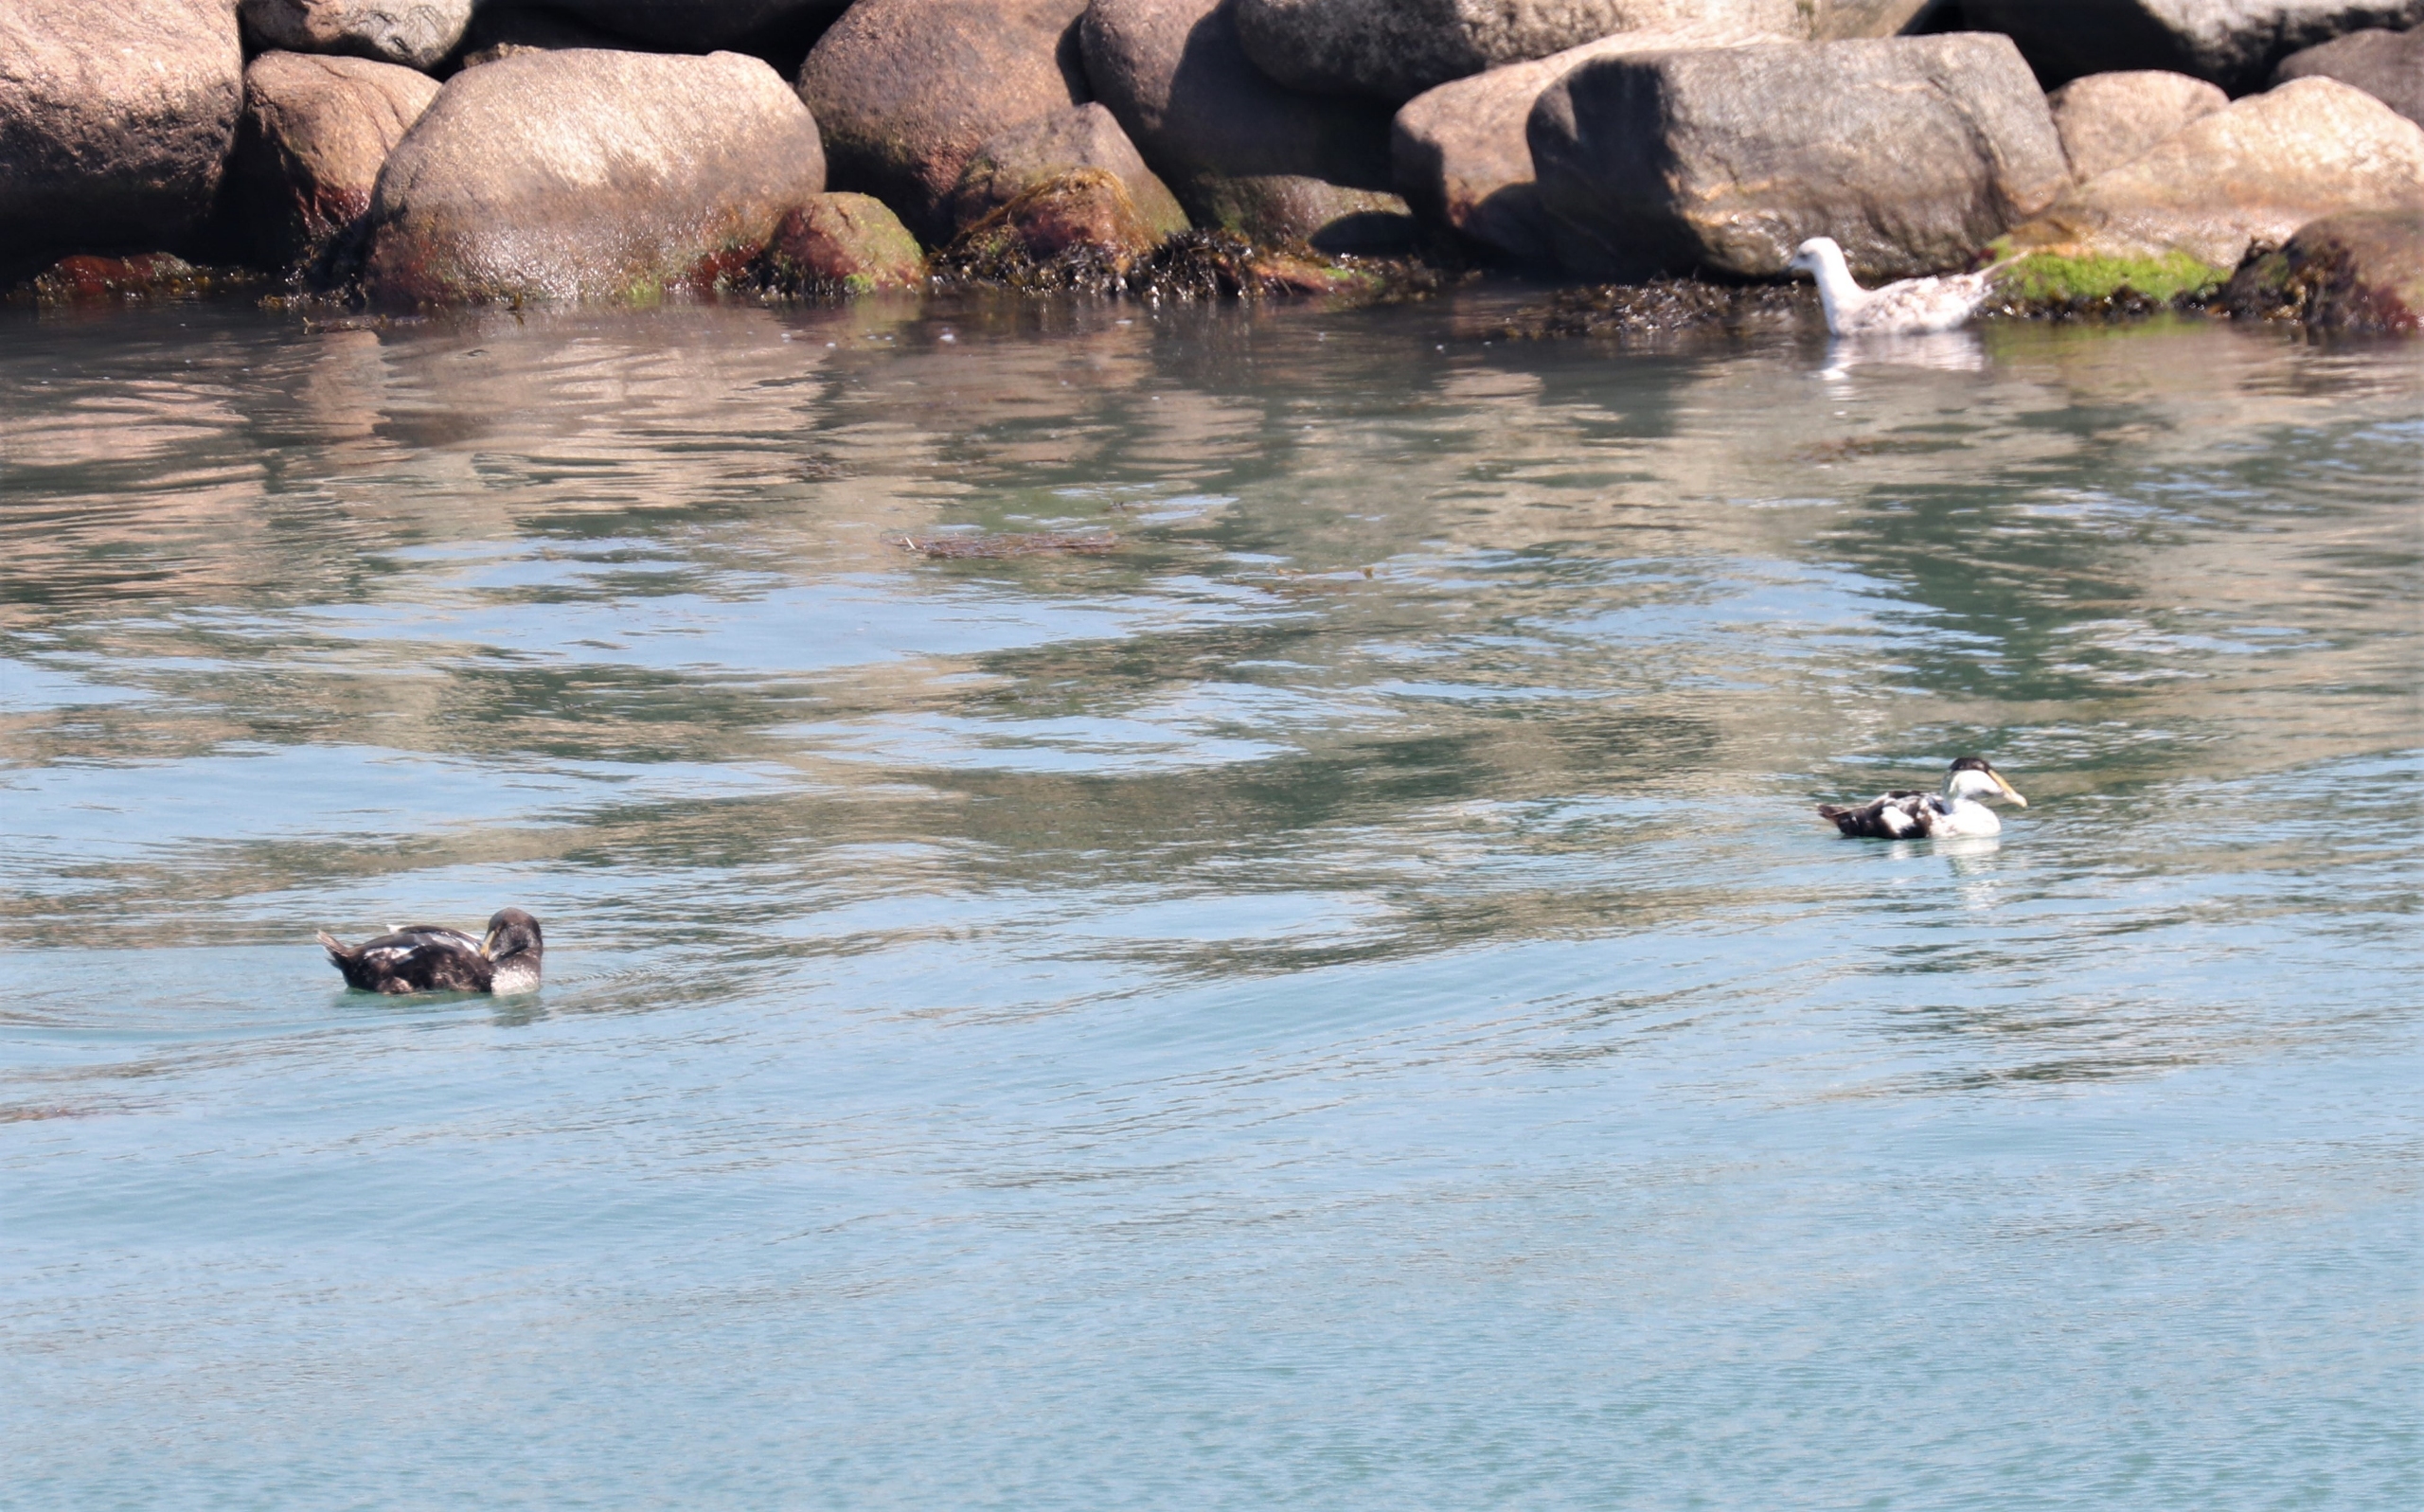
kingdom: Animalia
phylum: Chordata
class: Aves
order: Anseriformes
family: Anatidae
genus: Somateria
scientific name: Somateria mollissima
